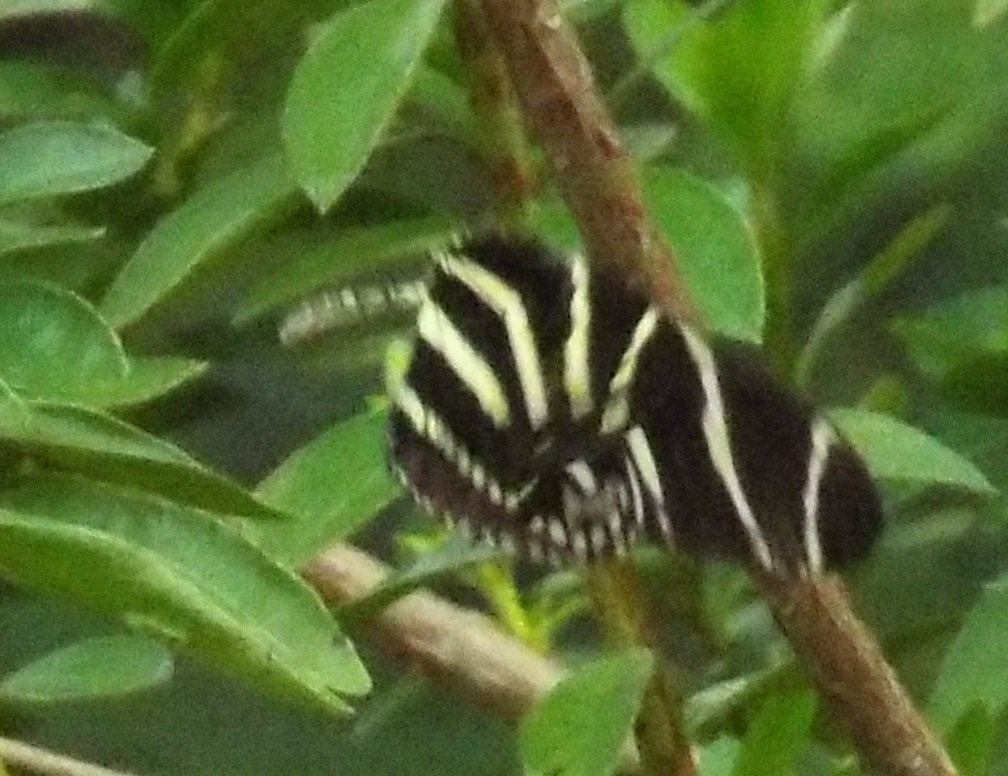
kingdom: Animalia
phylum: Arthropoda
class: Insecta
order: Lepidoptera
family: Nymphalidae
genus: Heliconius
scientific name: Heliconius charithonia
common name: Zebra Longwing
